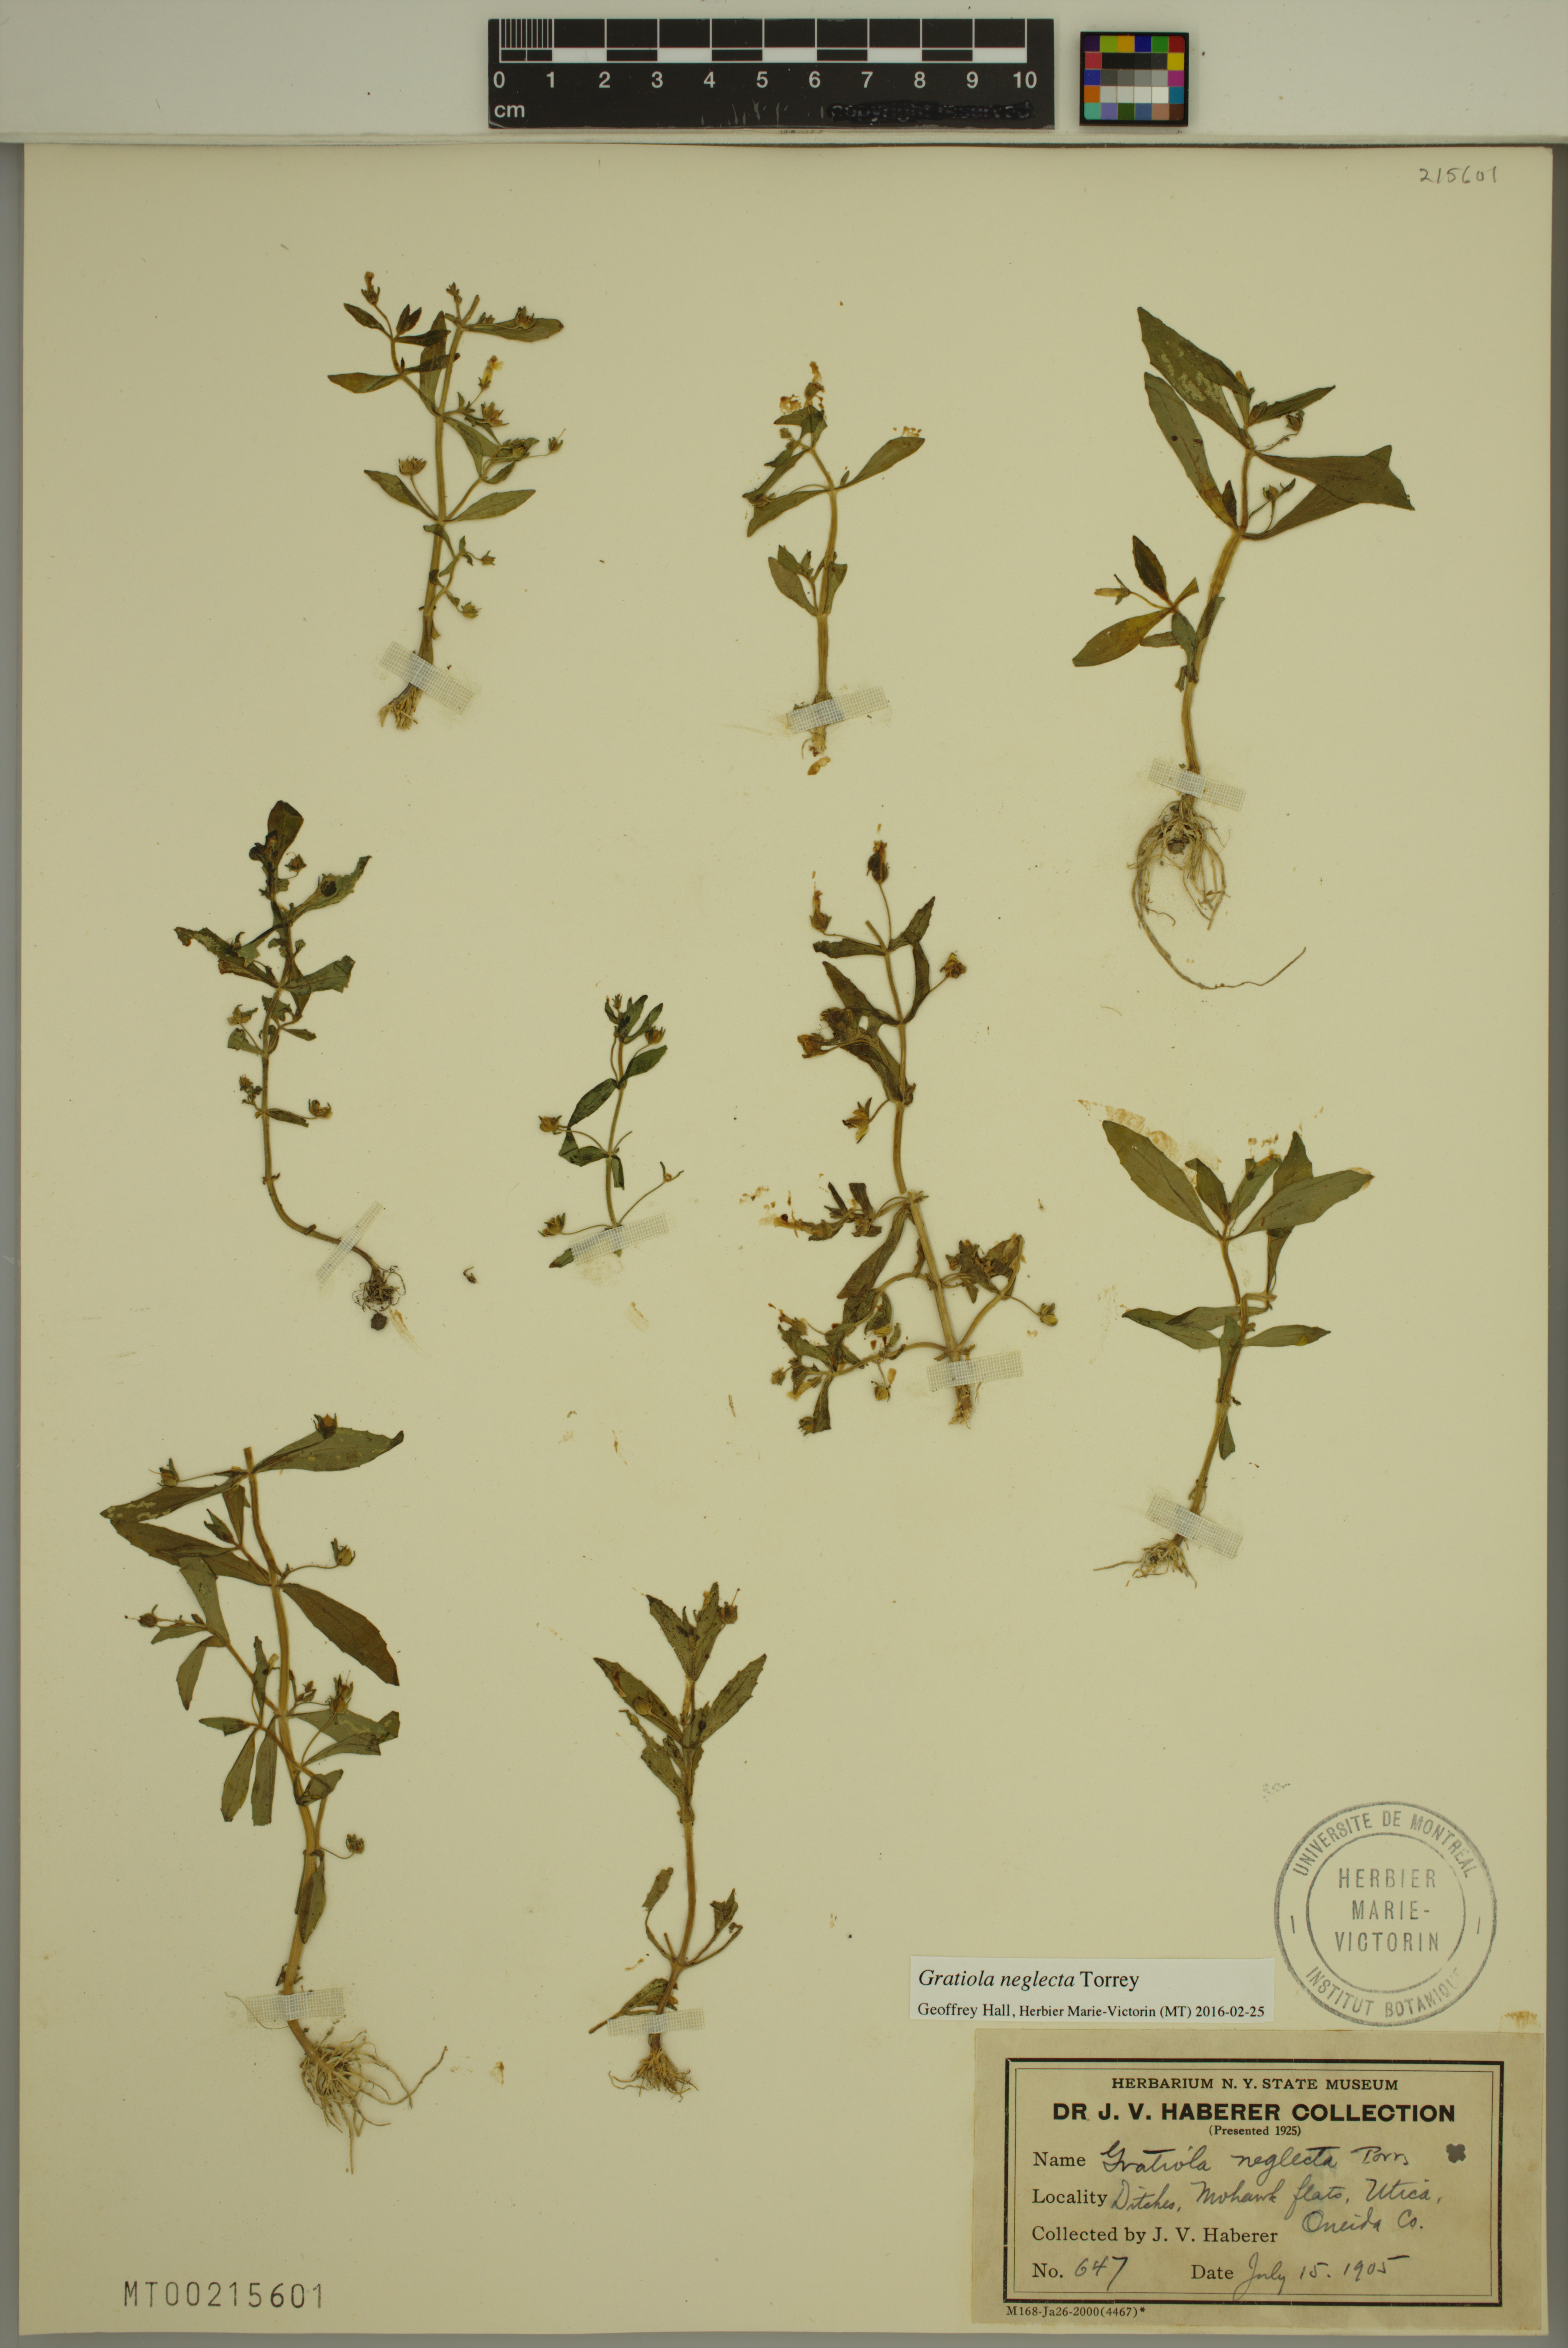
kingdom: Plantae
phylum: Tracheophyta
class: Magnoliopsida
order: Lamiales
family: Plantaginaceae
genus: Gratiola
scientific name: Gratiola neglecta
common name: American hedge-hyssop
